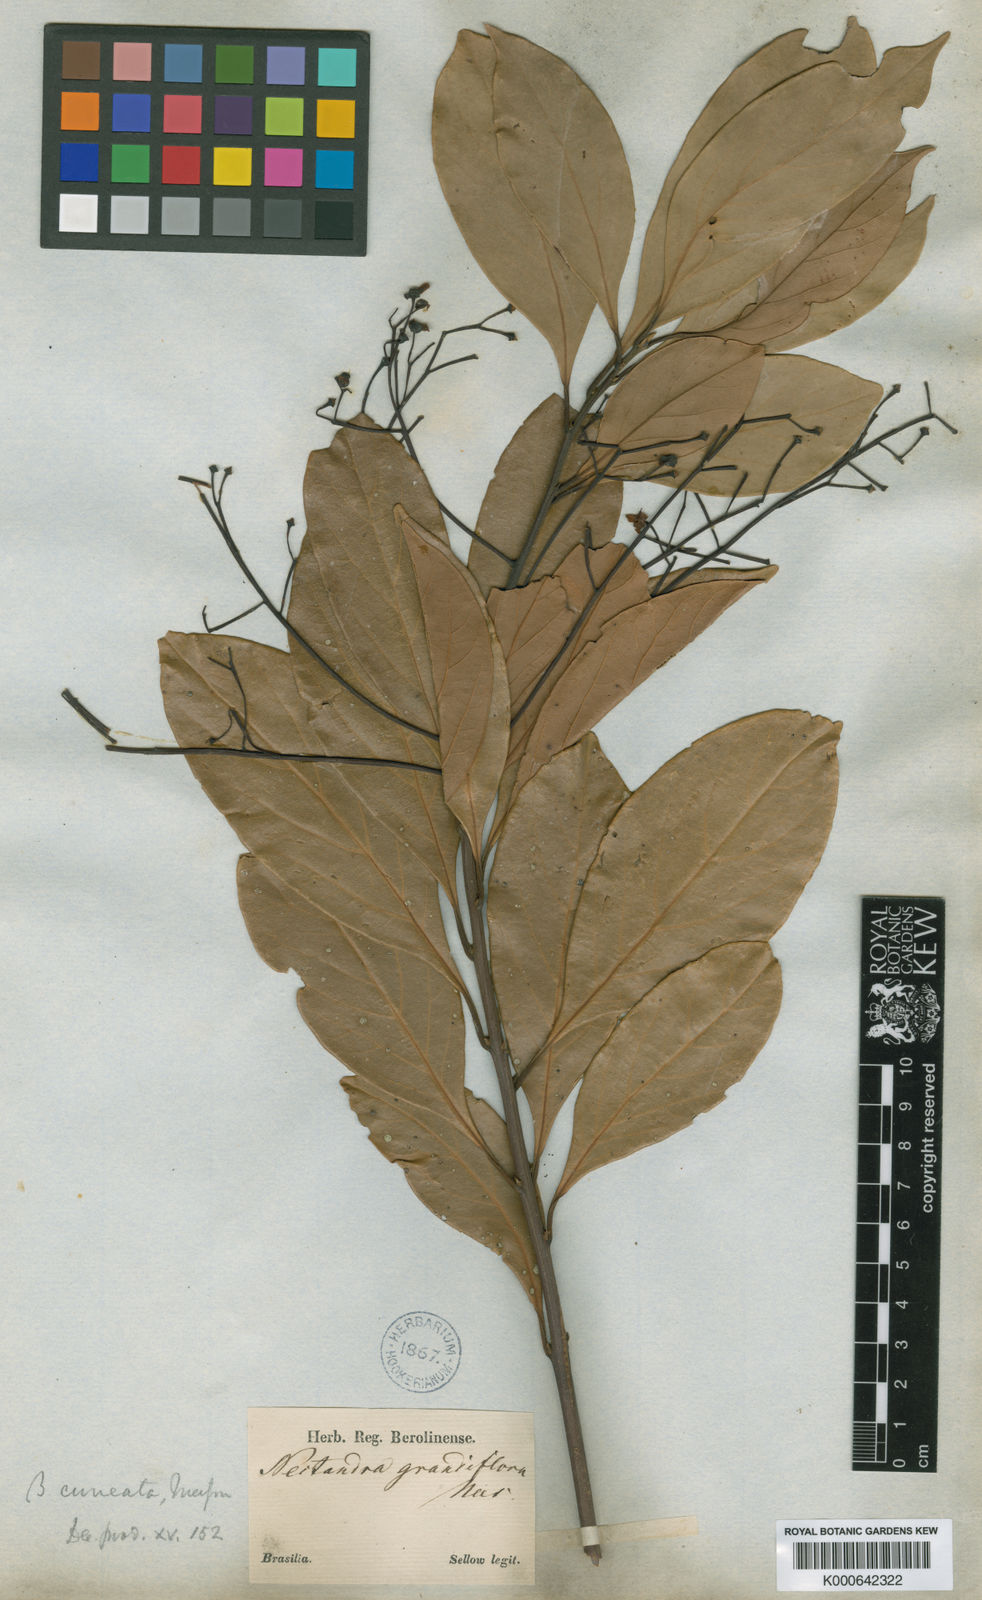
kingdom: Plantae
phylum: Tracheophyta
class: Magnoliopsida
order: Laurales
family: Lauraceae
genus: Nectandra
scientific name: Nectandra grandiflora
